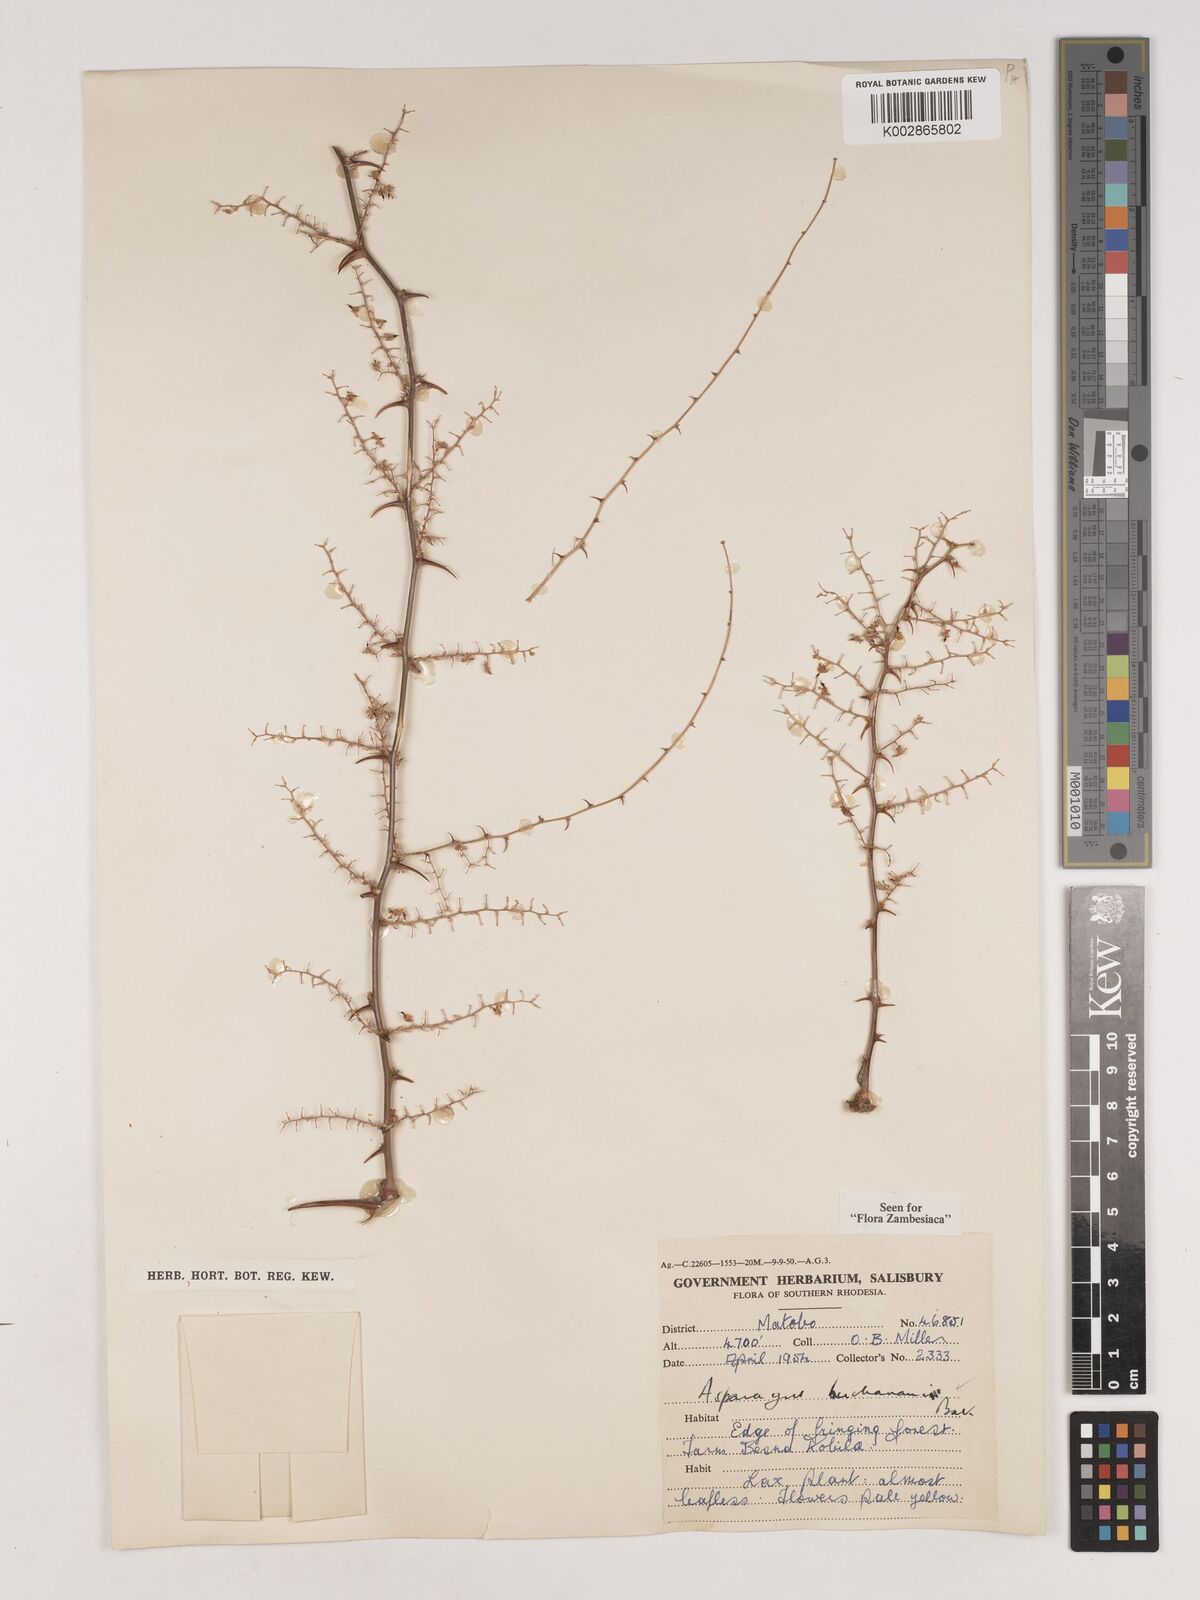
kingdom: Plantae
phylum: Tracheophyta
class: Liliopsida
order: Asparagales
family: Asparagaceae
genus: Asparagus
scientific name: Asparagus buchananii
